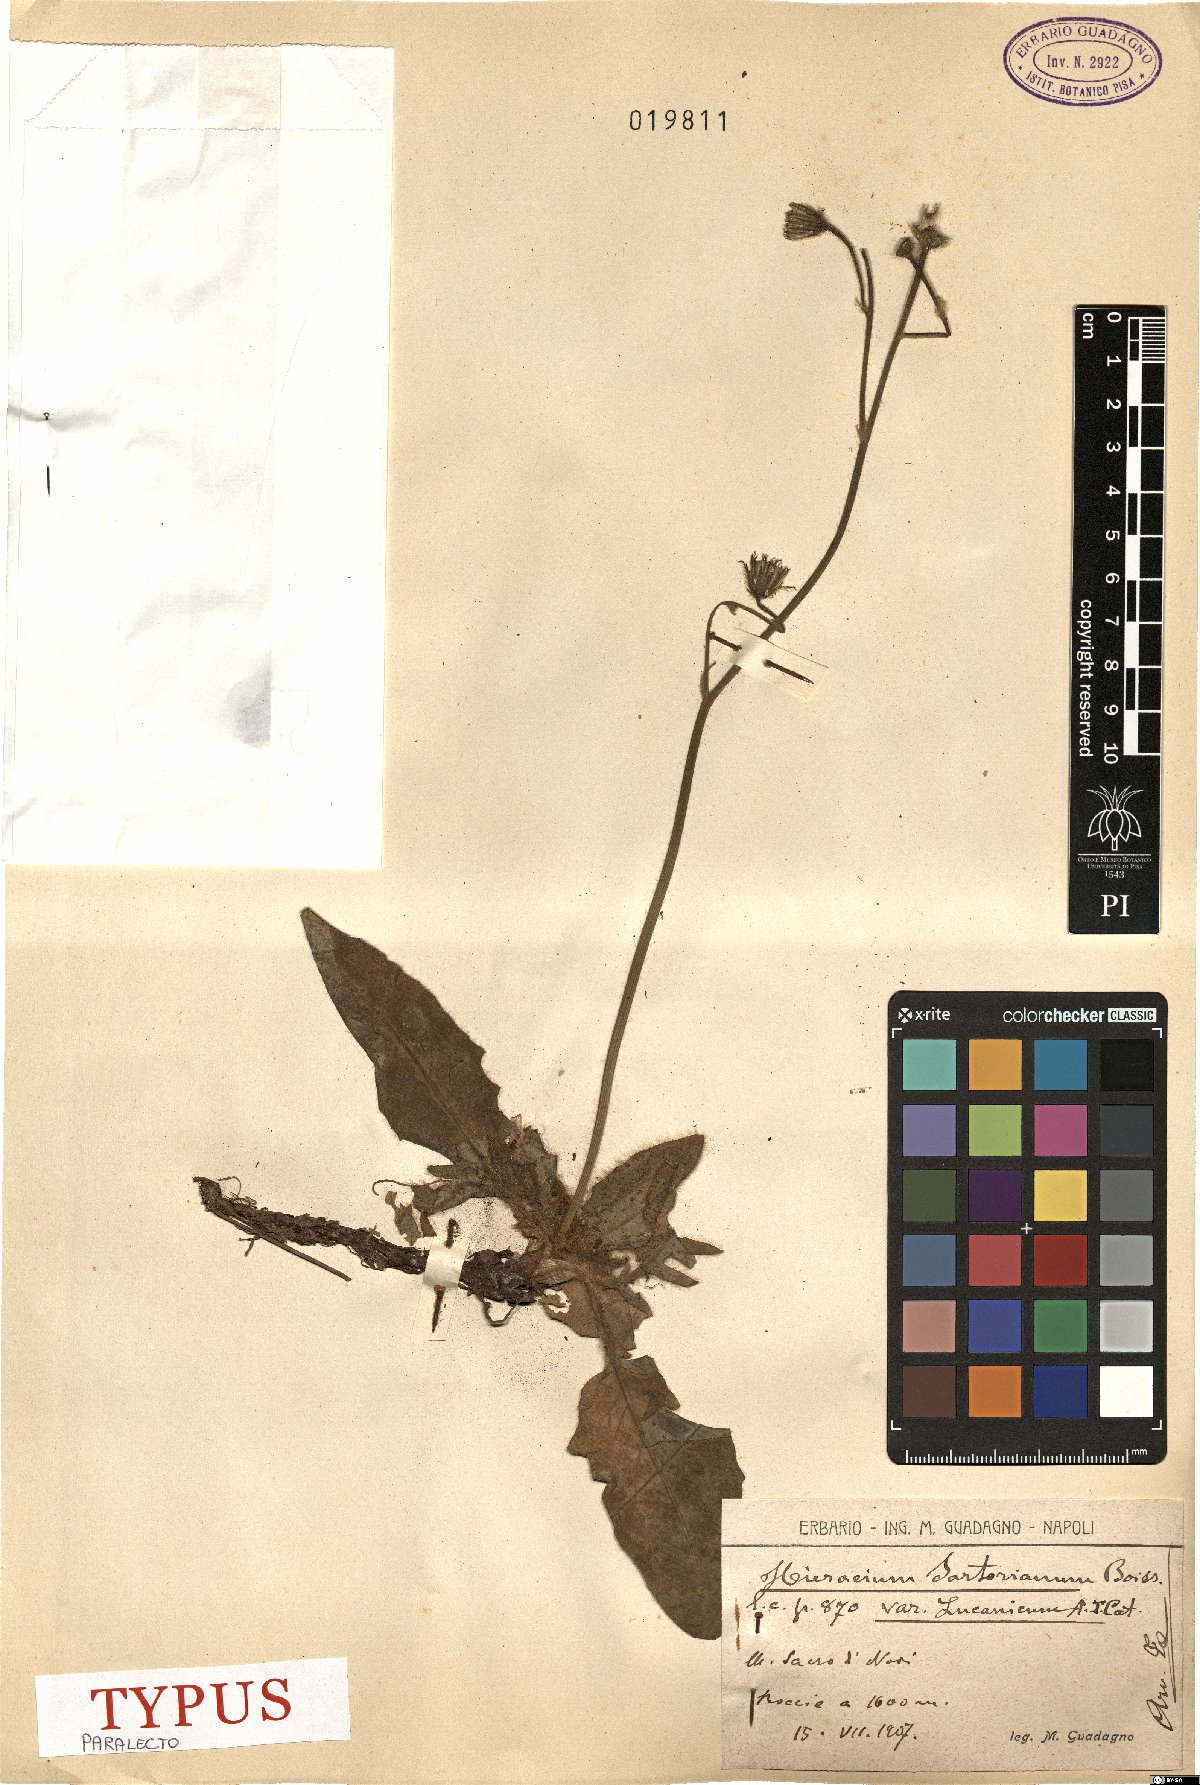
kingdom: Plantae
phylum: Tracheophyta
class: Magnoliopsida
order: Asterales
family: Asteraceae
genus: Hieracium
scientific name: Hieracium hypochoeroides
